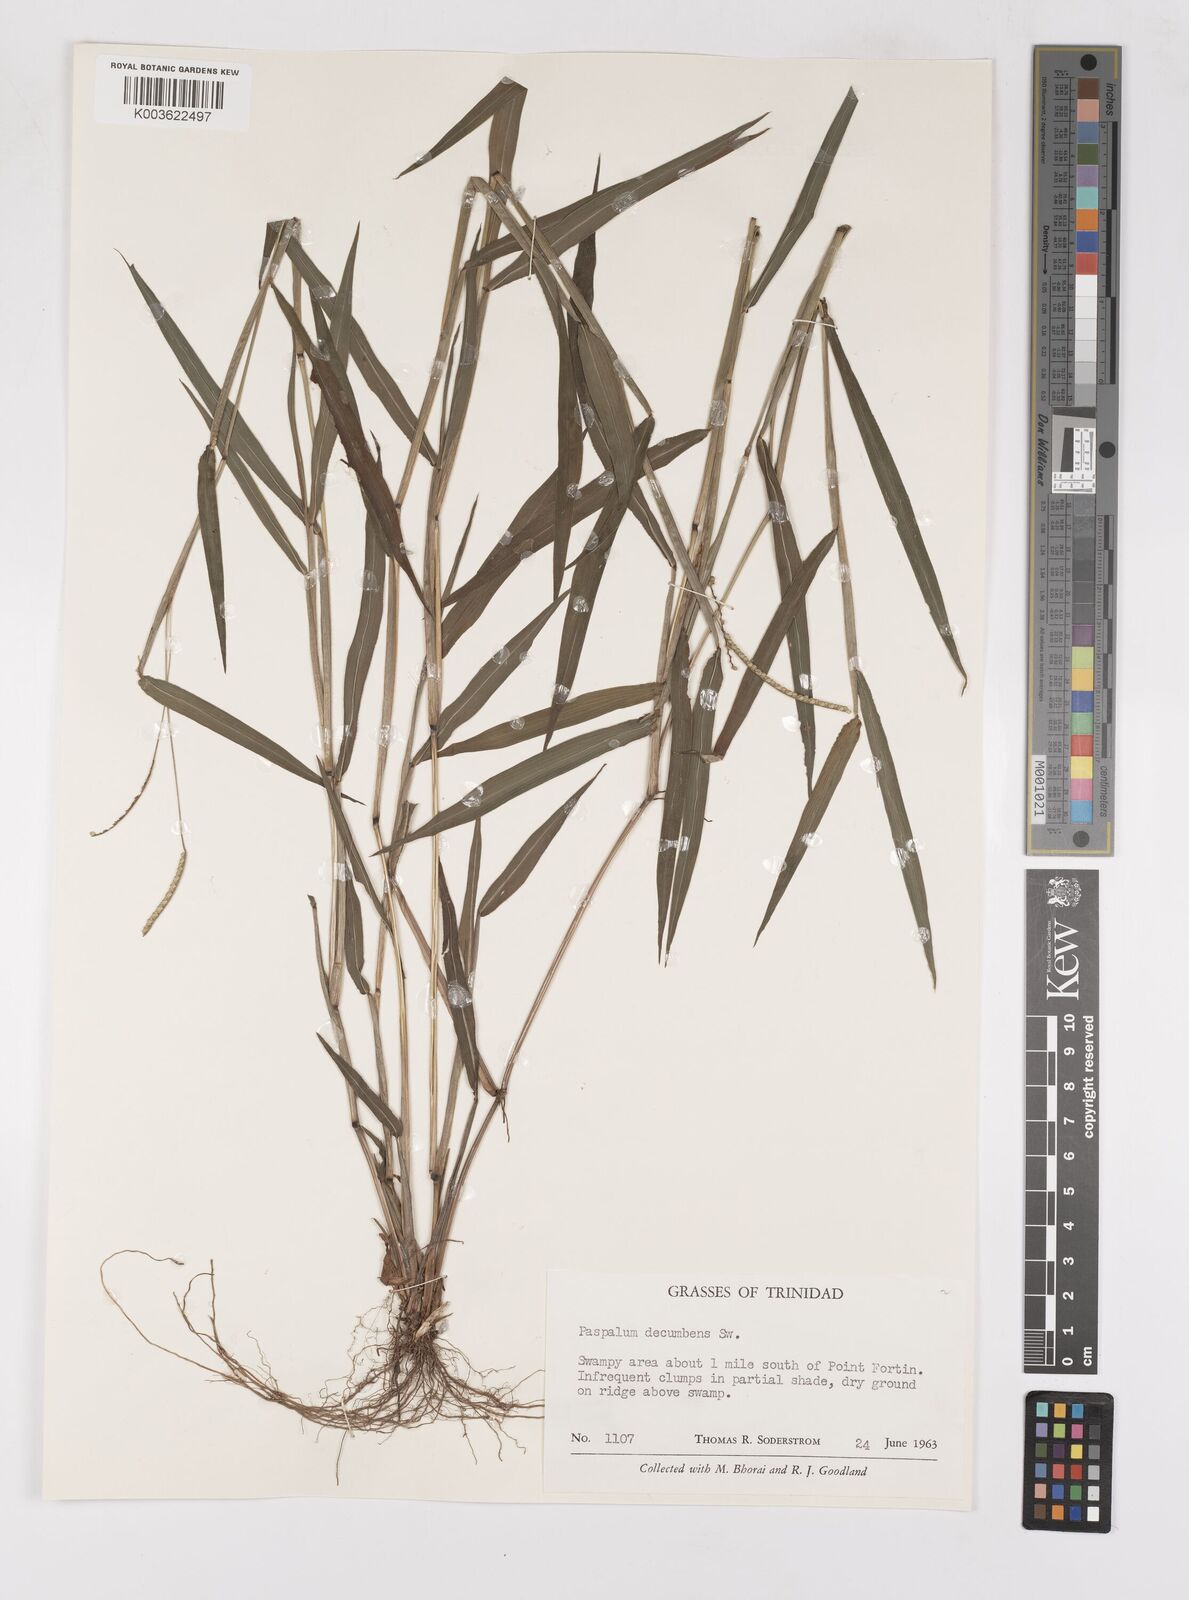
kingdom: Plantae
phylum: Tracheophyta
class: Liliopsida
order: Poales
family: Poaceae
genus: Paspalum
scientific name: Paspalum decumbens
